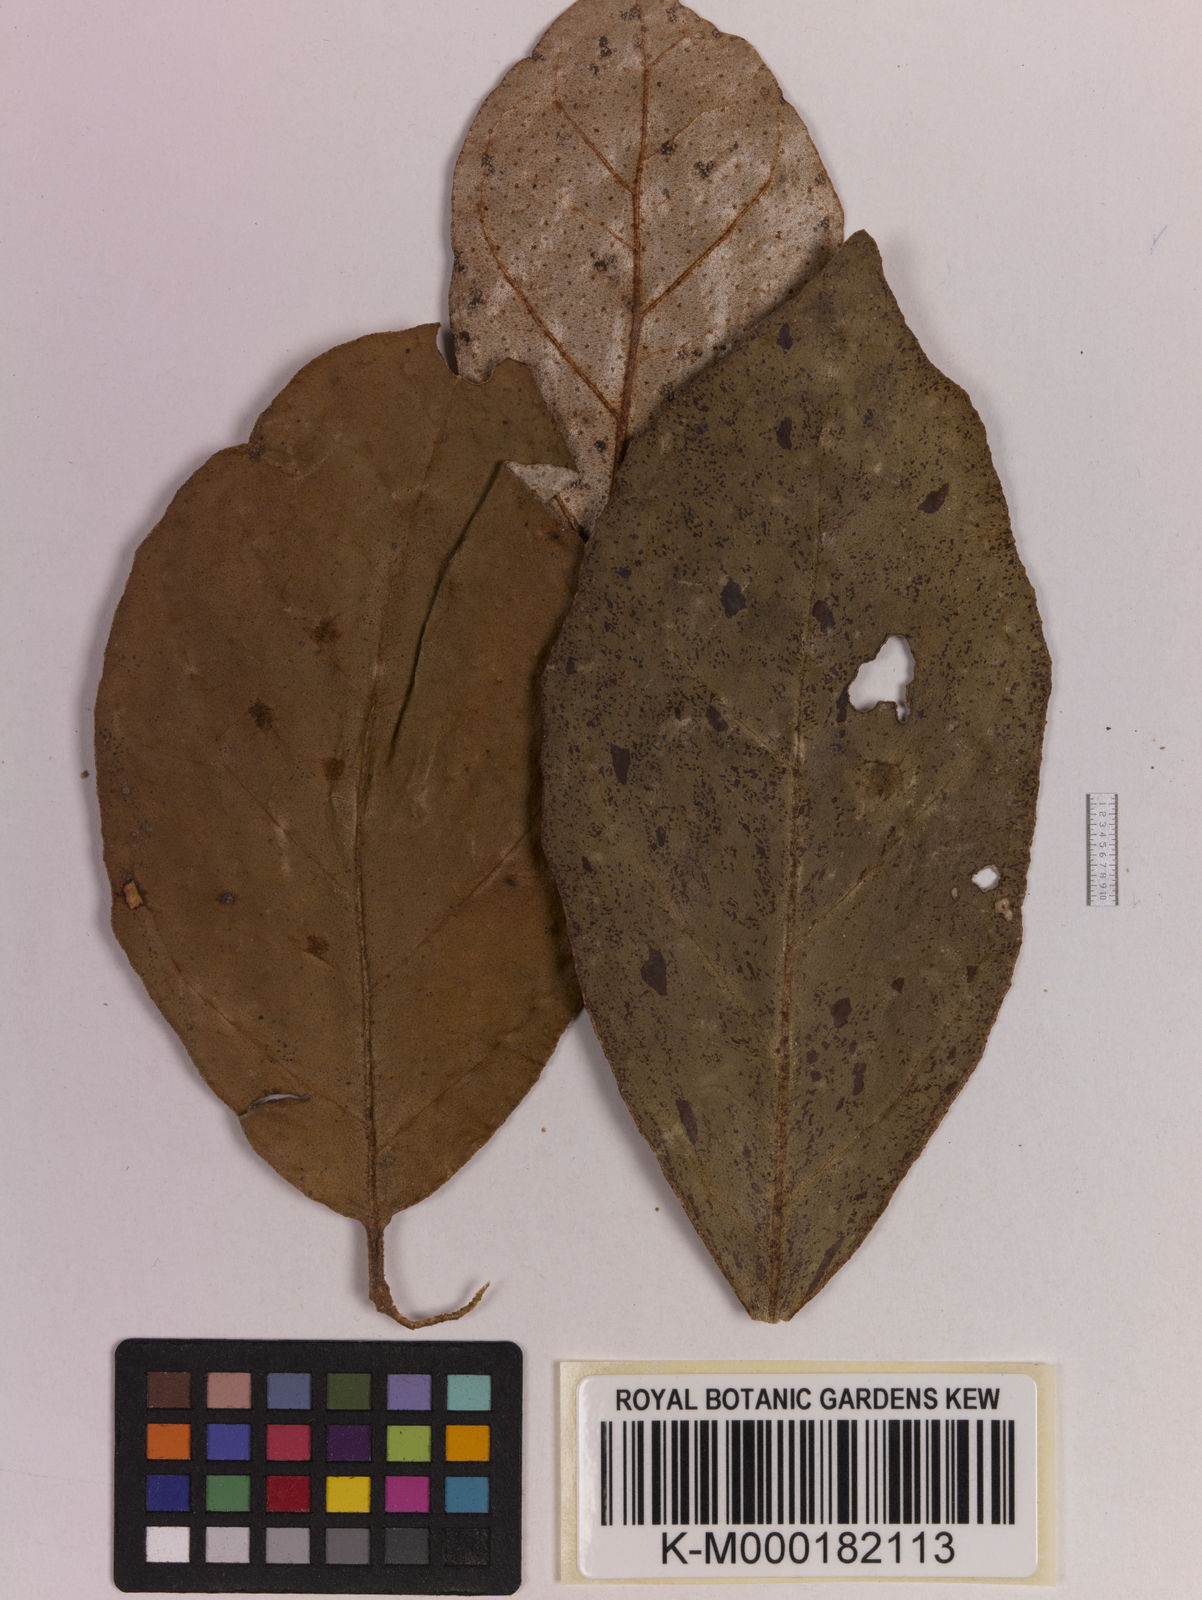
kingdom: Plantae
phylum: Tracheophyta
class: Magnoliopsida
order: Myrtales
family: Myrtaceae
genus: Syzygium
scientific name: Syzygium aqueum
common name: Water-apple
